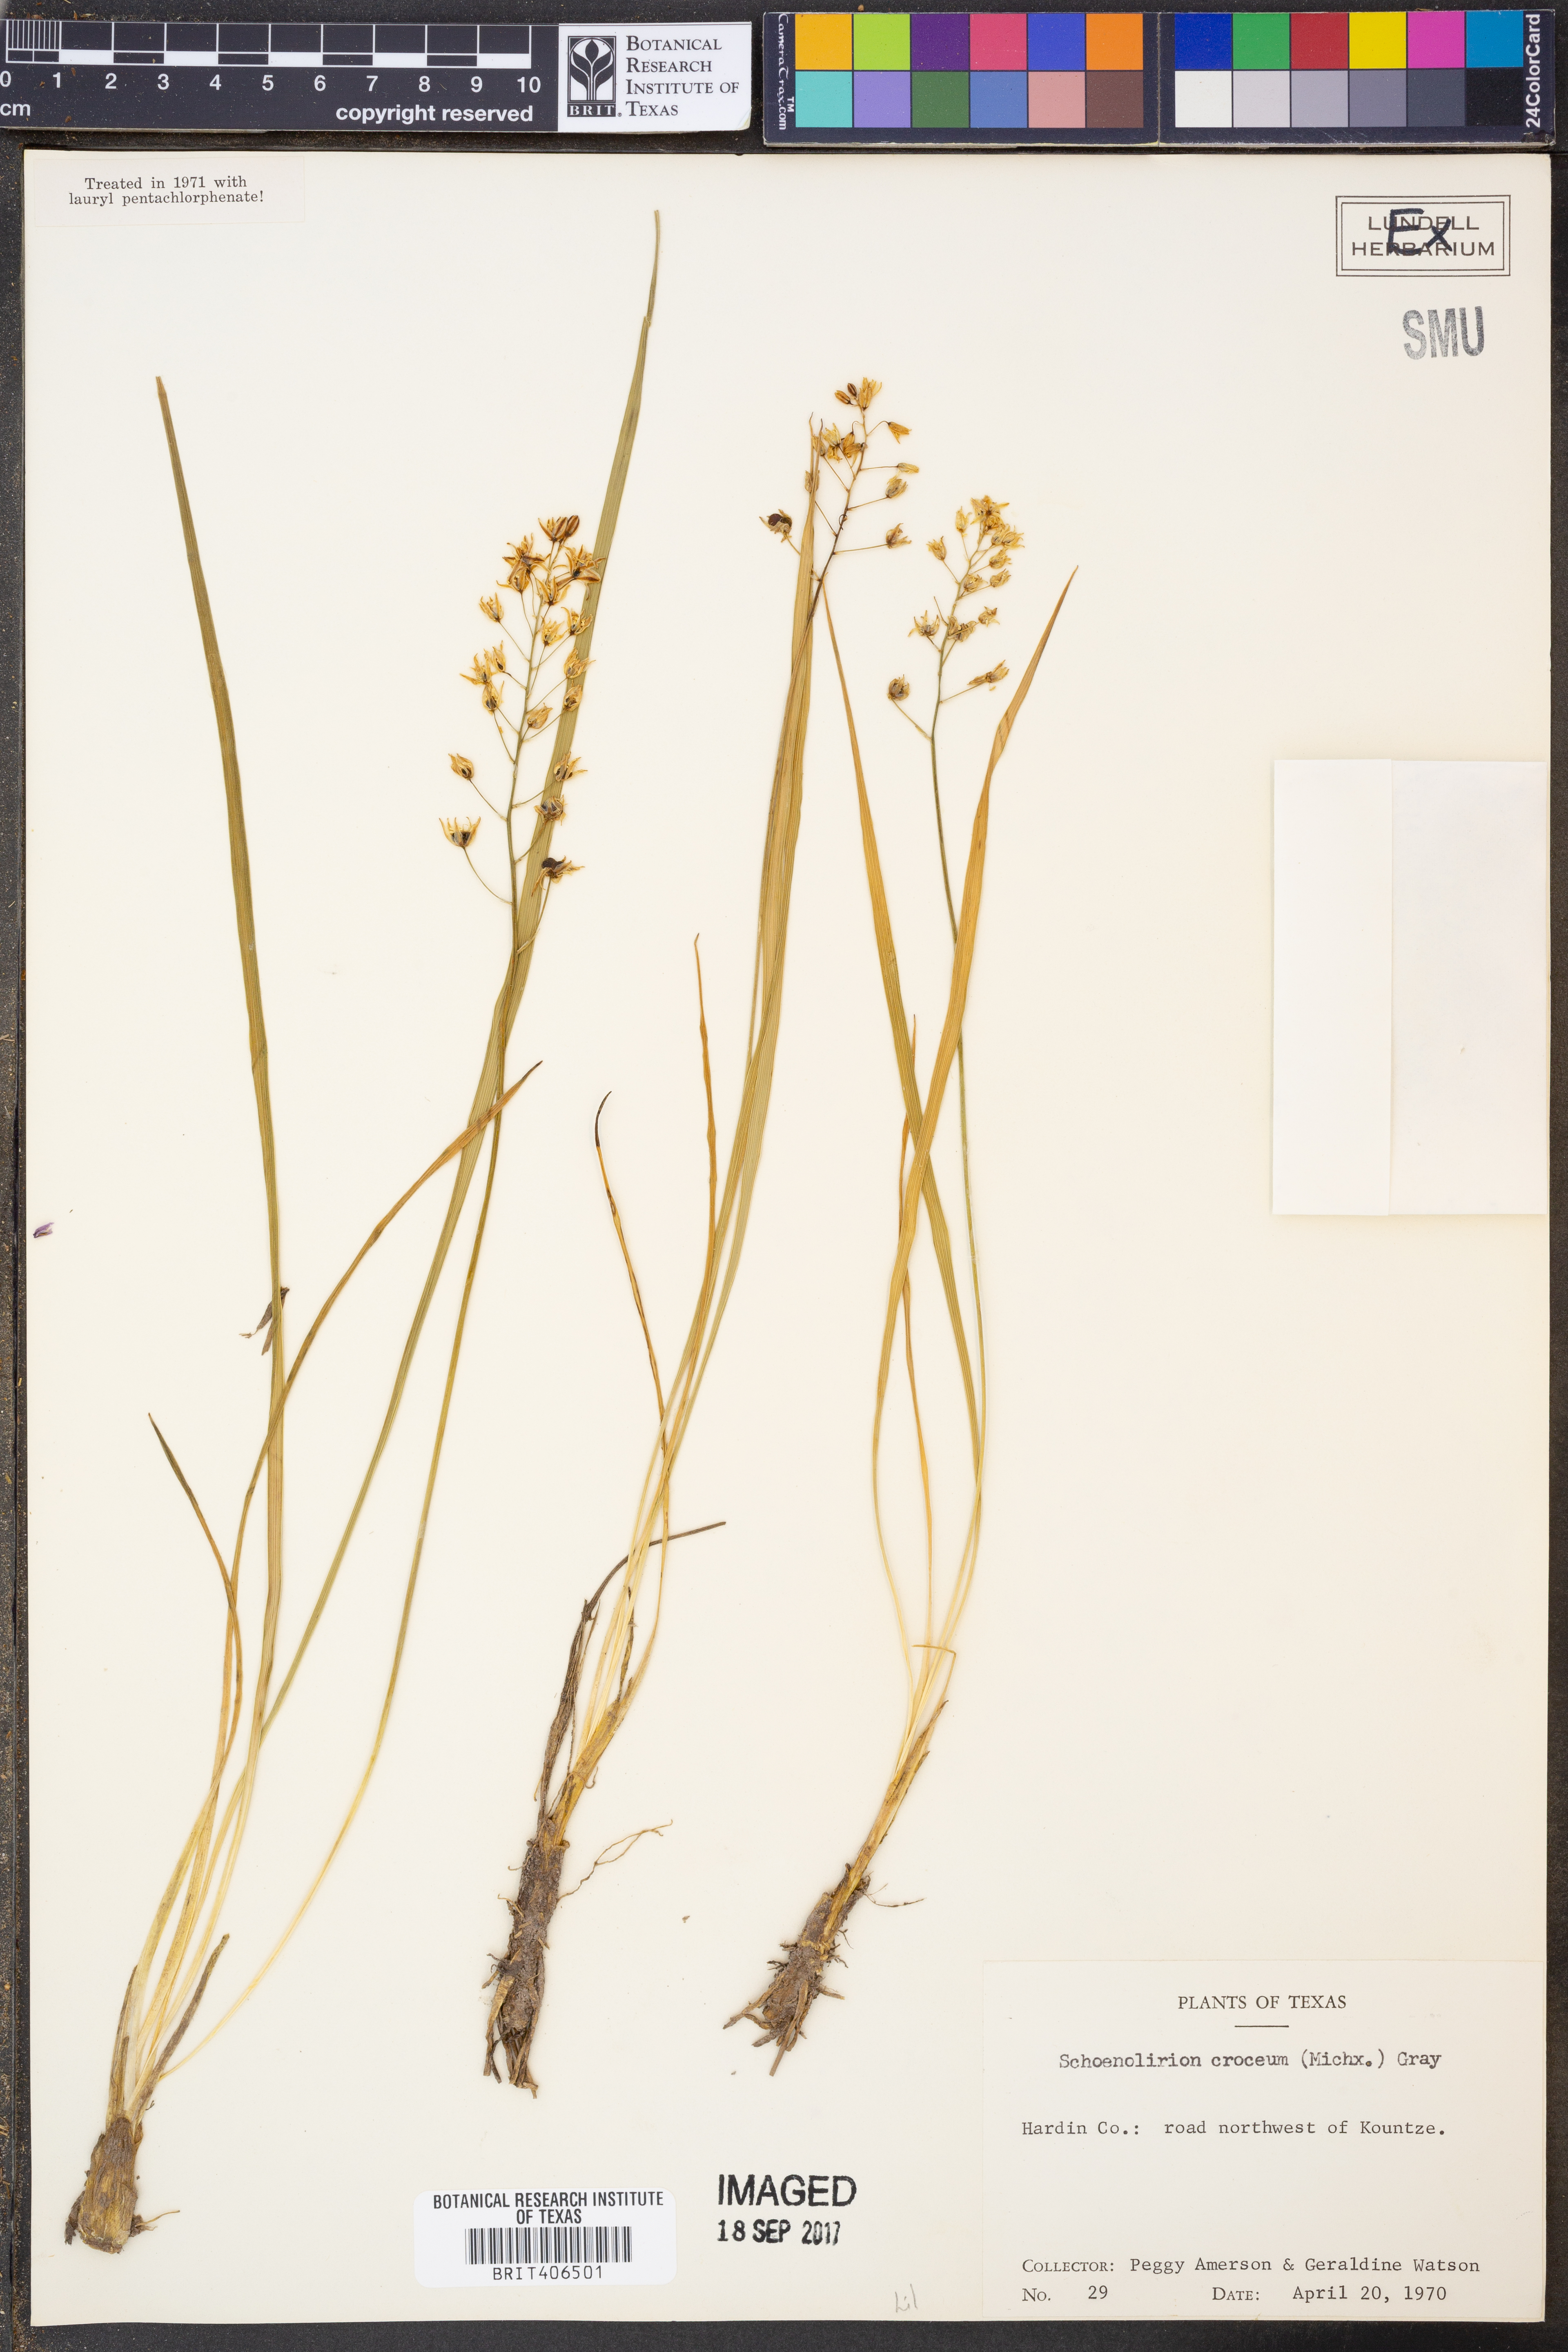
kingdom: Plantae
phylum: Tracheophyta
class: Liliopsida
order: Asparagales
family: Asparagaceae
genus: Schoenolirion
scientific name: Schoenolirion croceum
